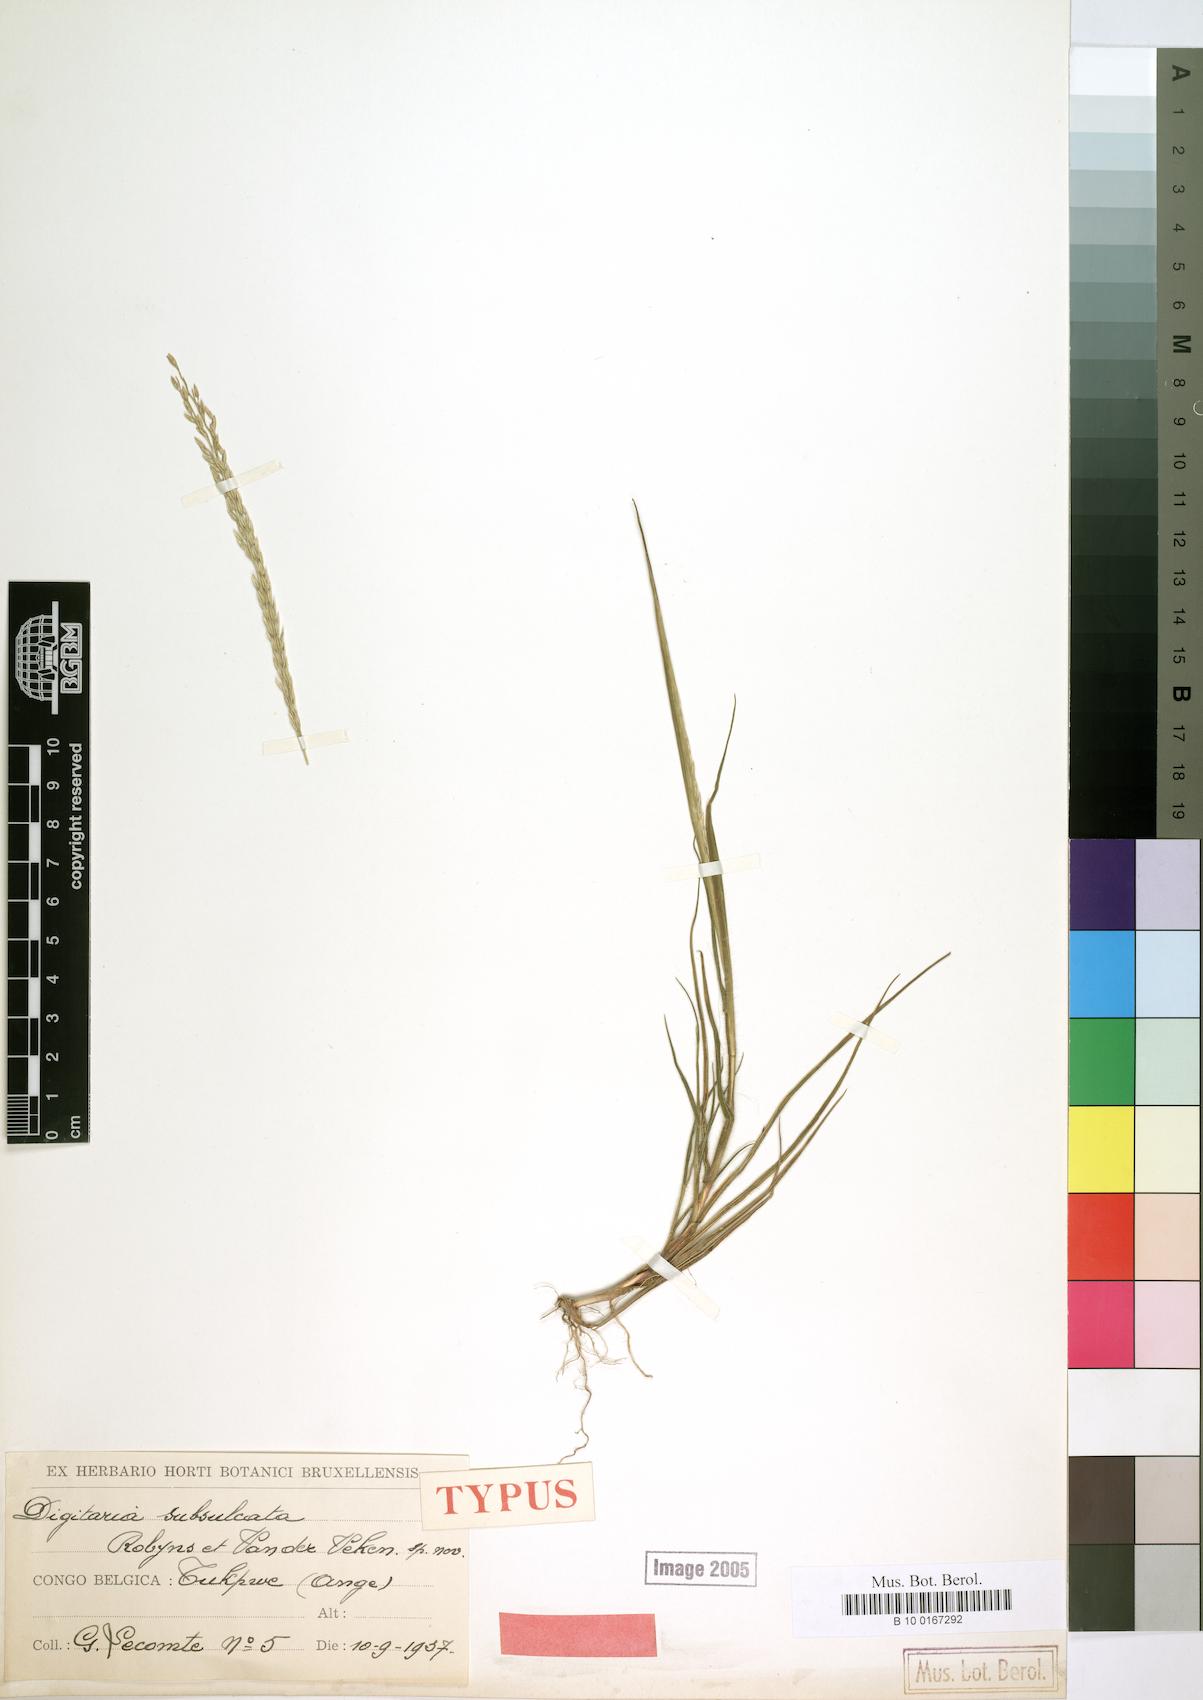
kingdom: Plantae
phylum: Tracheophyta
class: Liliopsida
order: Poales
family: Poaceae
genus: Digitaria
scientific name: Digitaria subsulcata
